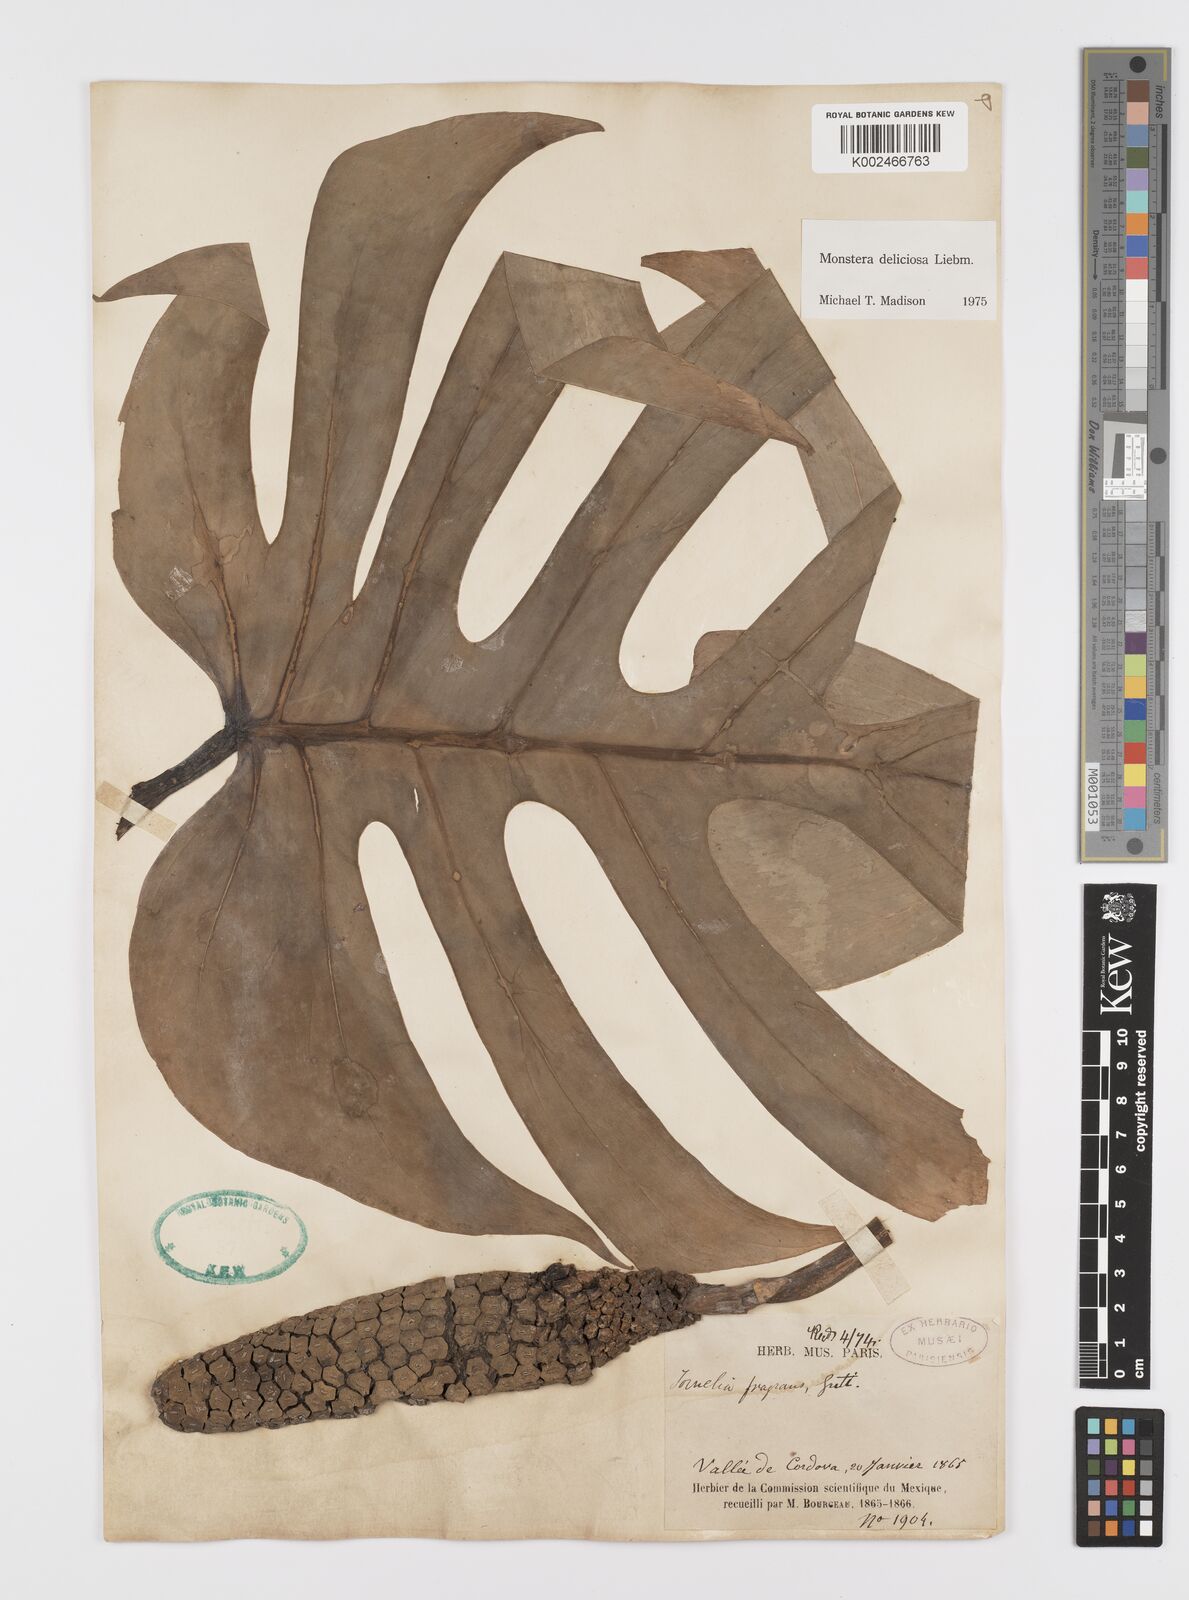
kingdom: Plantae
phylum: Tracheophyta
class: Liliopsida
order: Alismatales
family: Araceae
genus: Monstera
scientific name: Monstera deliciosa
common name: Cut-leaf-philodendron
